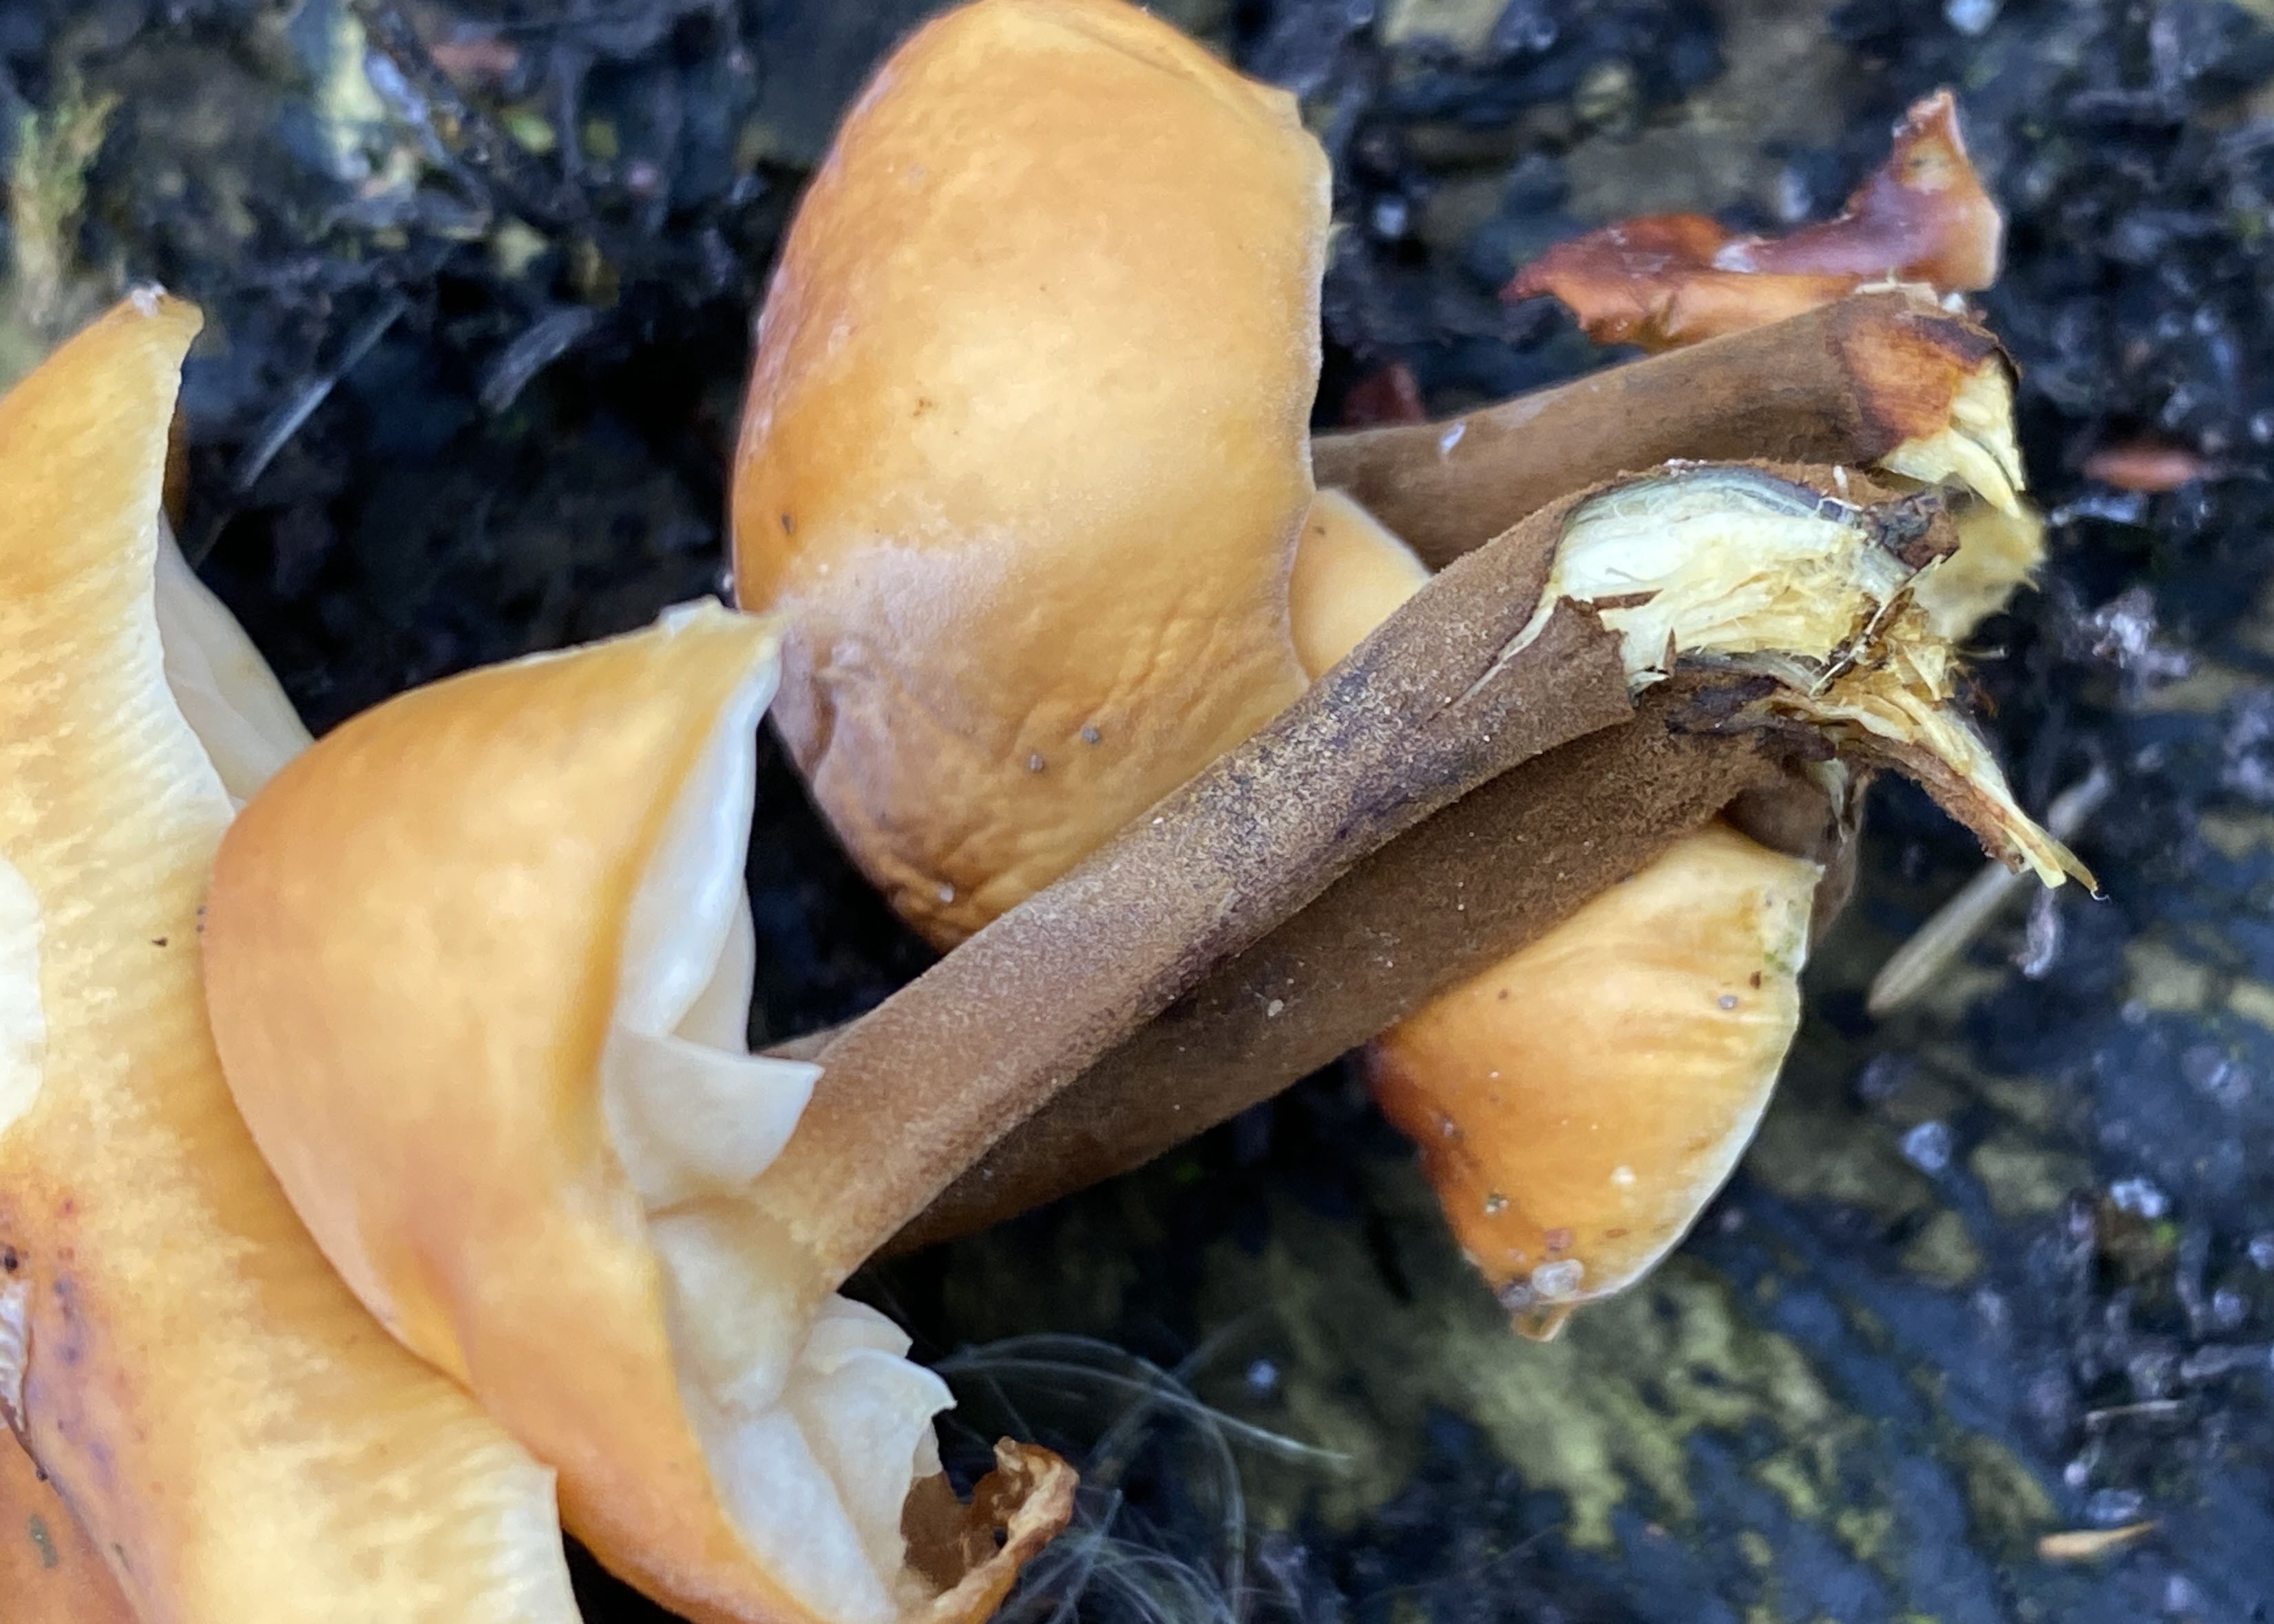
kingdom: Fungi
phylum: Basidiomycota
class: Agaricomycetes
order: Agaricales
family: Physalacriaceae
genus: Flammulina
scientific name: Flammulina
